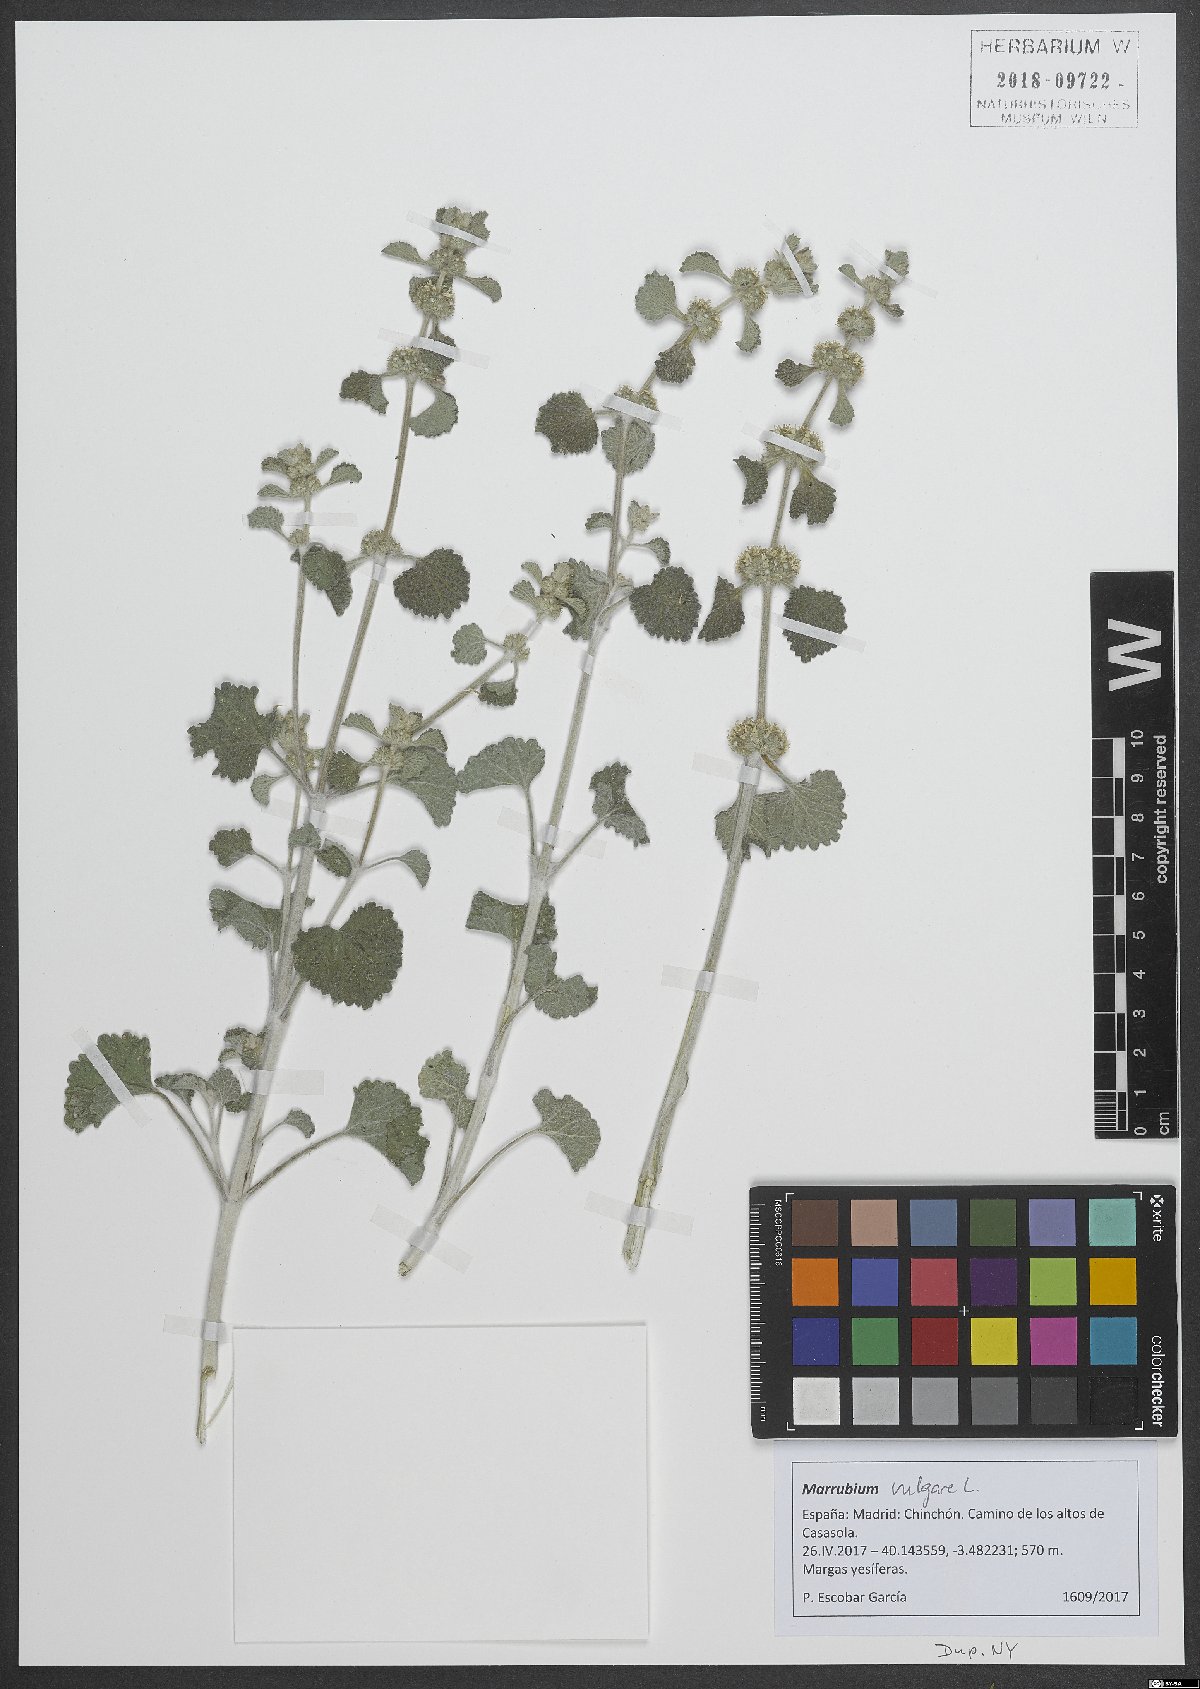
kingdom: Plantae
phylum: Tracheophyta
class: Magnoliopsida
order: Lamiales
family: Lamiaceae
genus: Marrubium
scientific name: Marrubium vulgare
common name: Horehound
